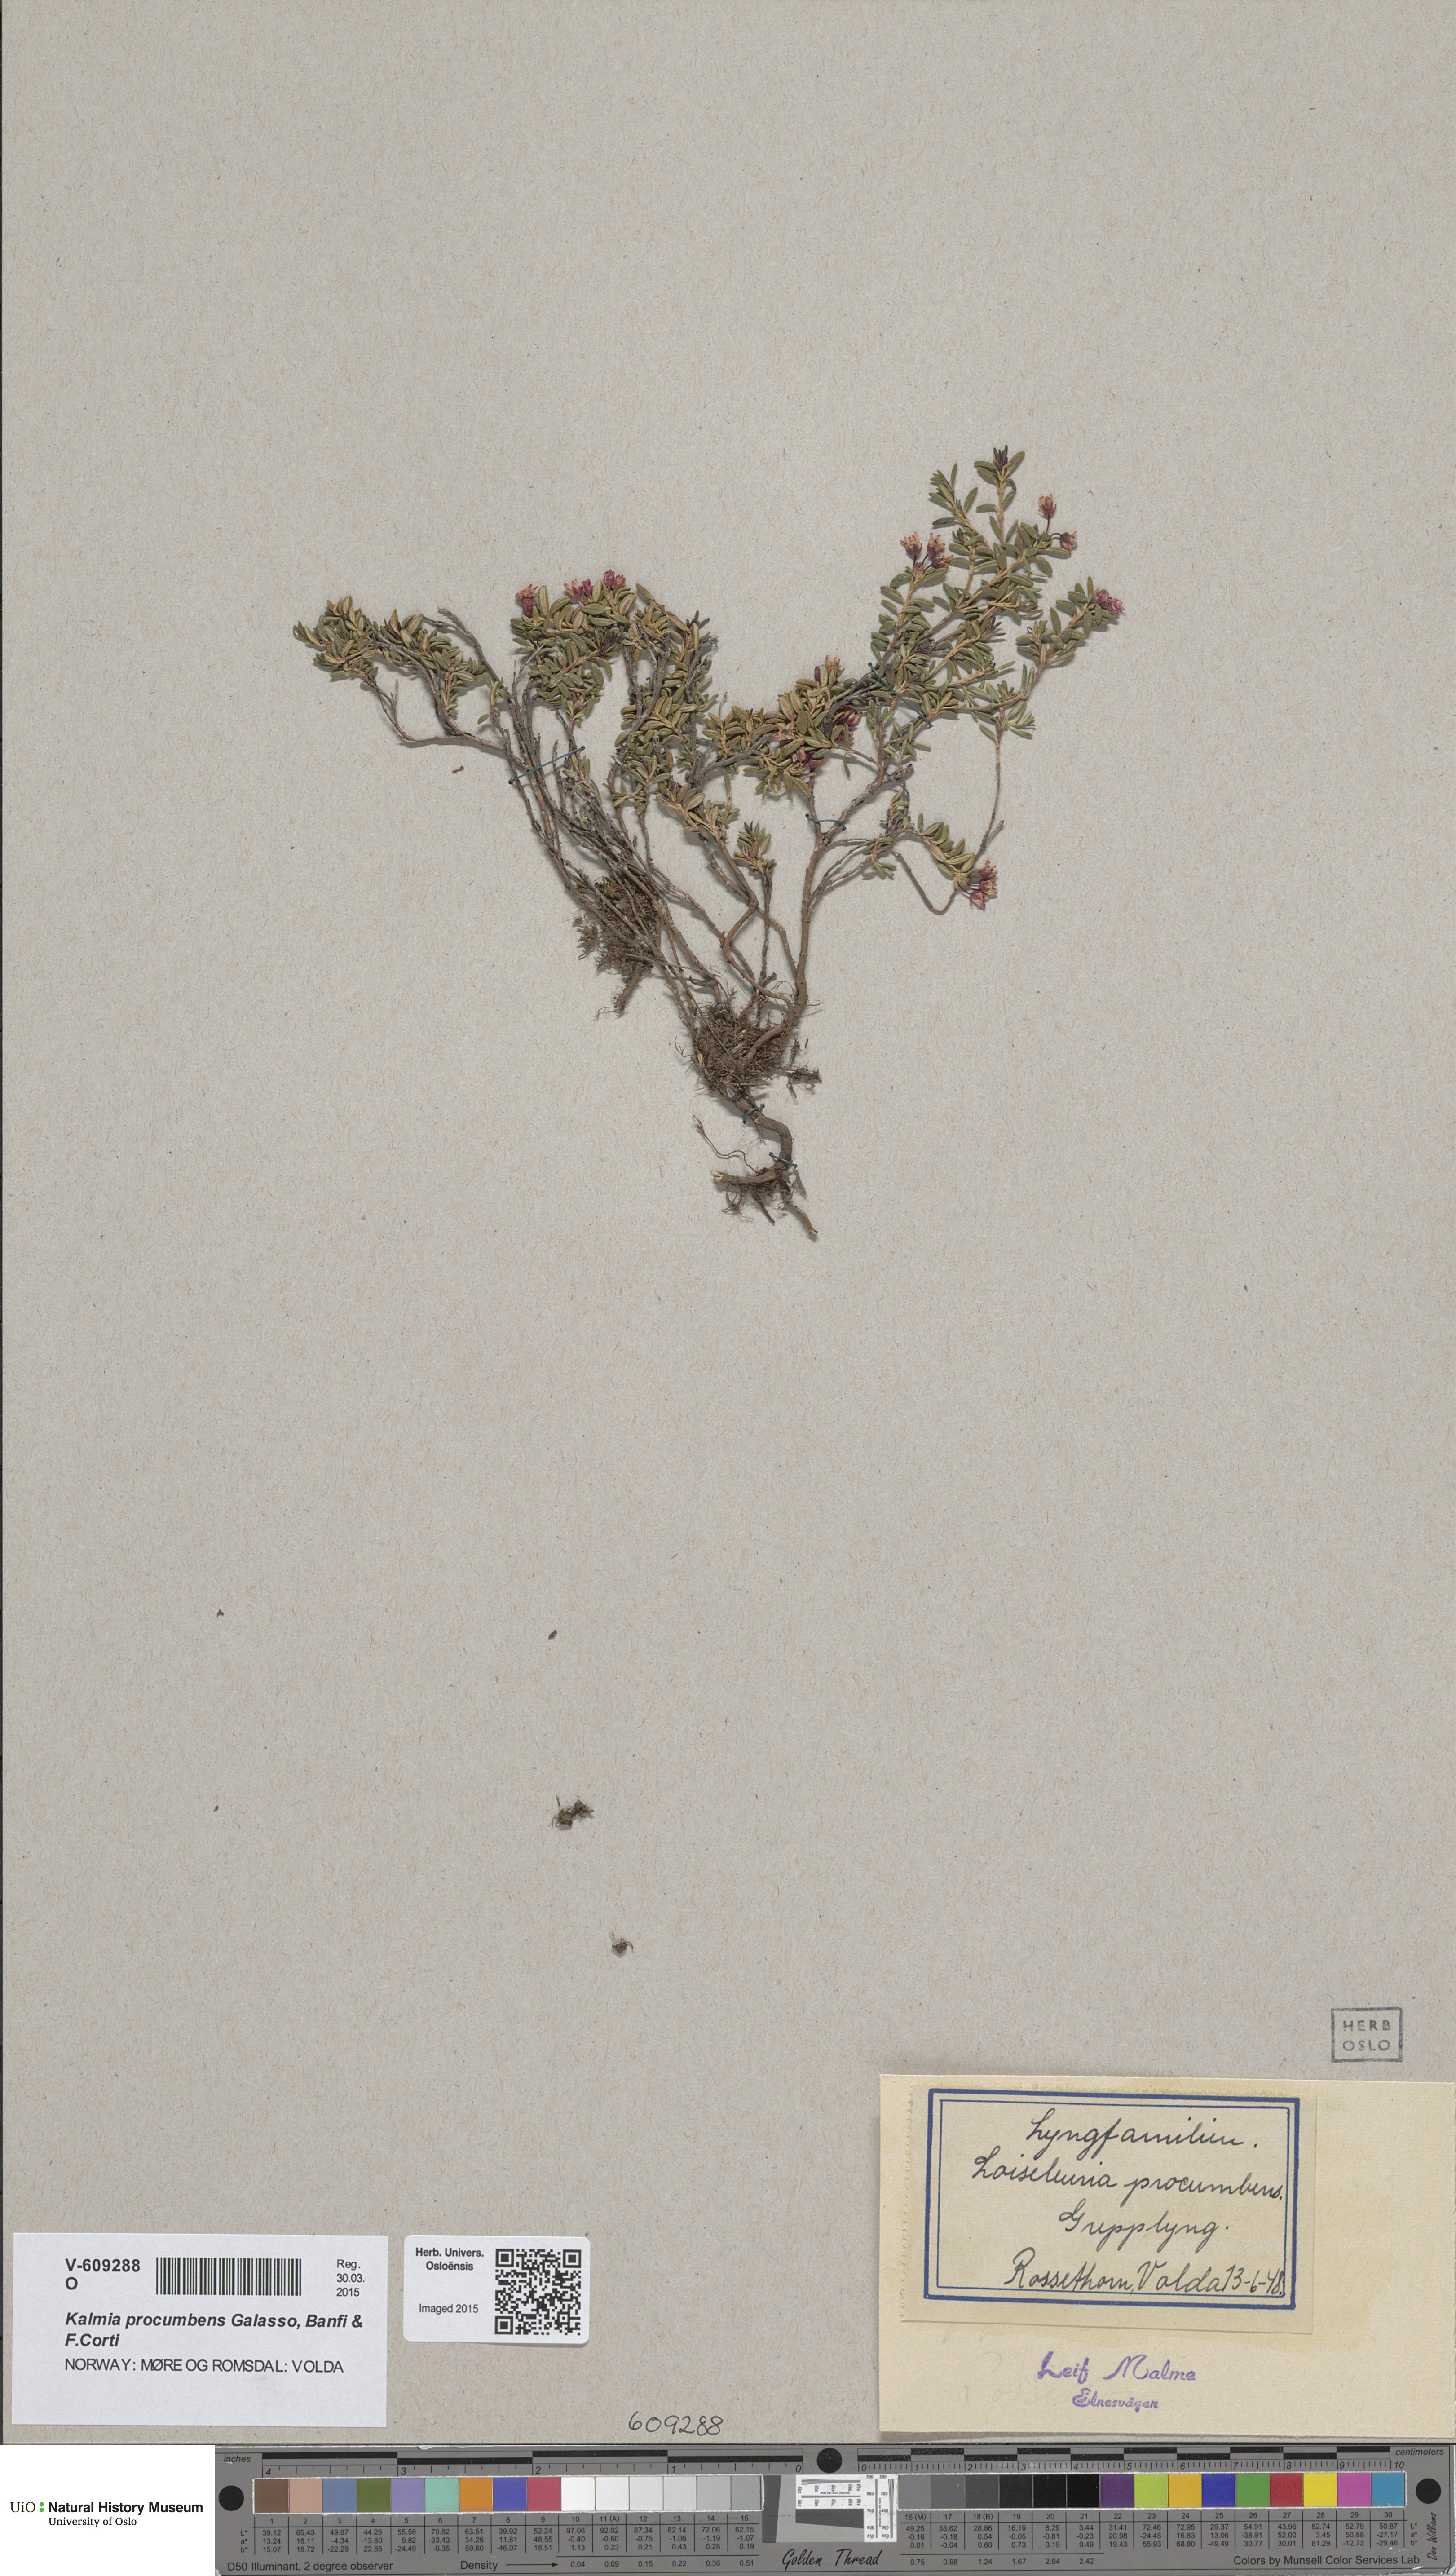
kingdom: Plantae
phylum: Tracheophyta
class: Magnoliopsida
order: Ericales
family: Ericaceae
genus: Kalmia
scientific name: Kalmia procumbens
